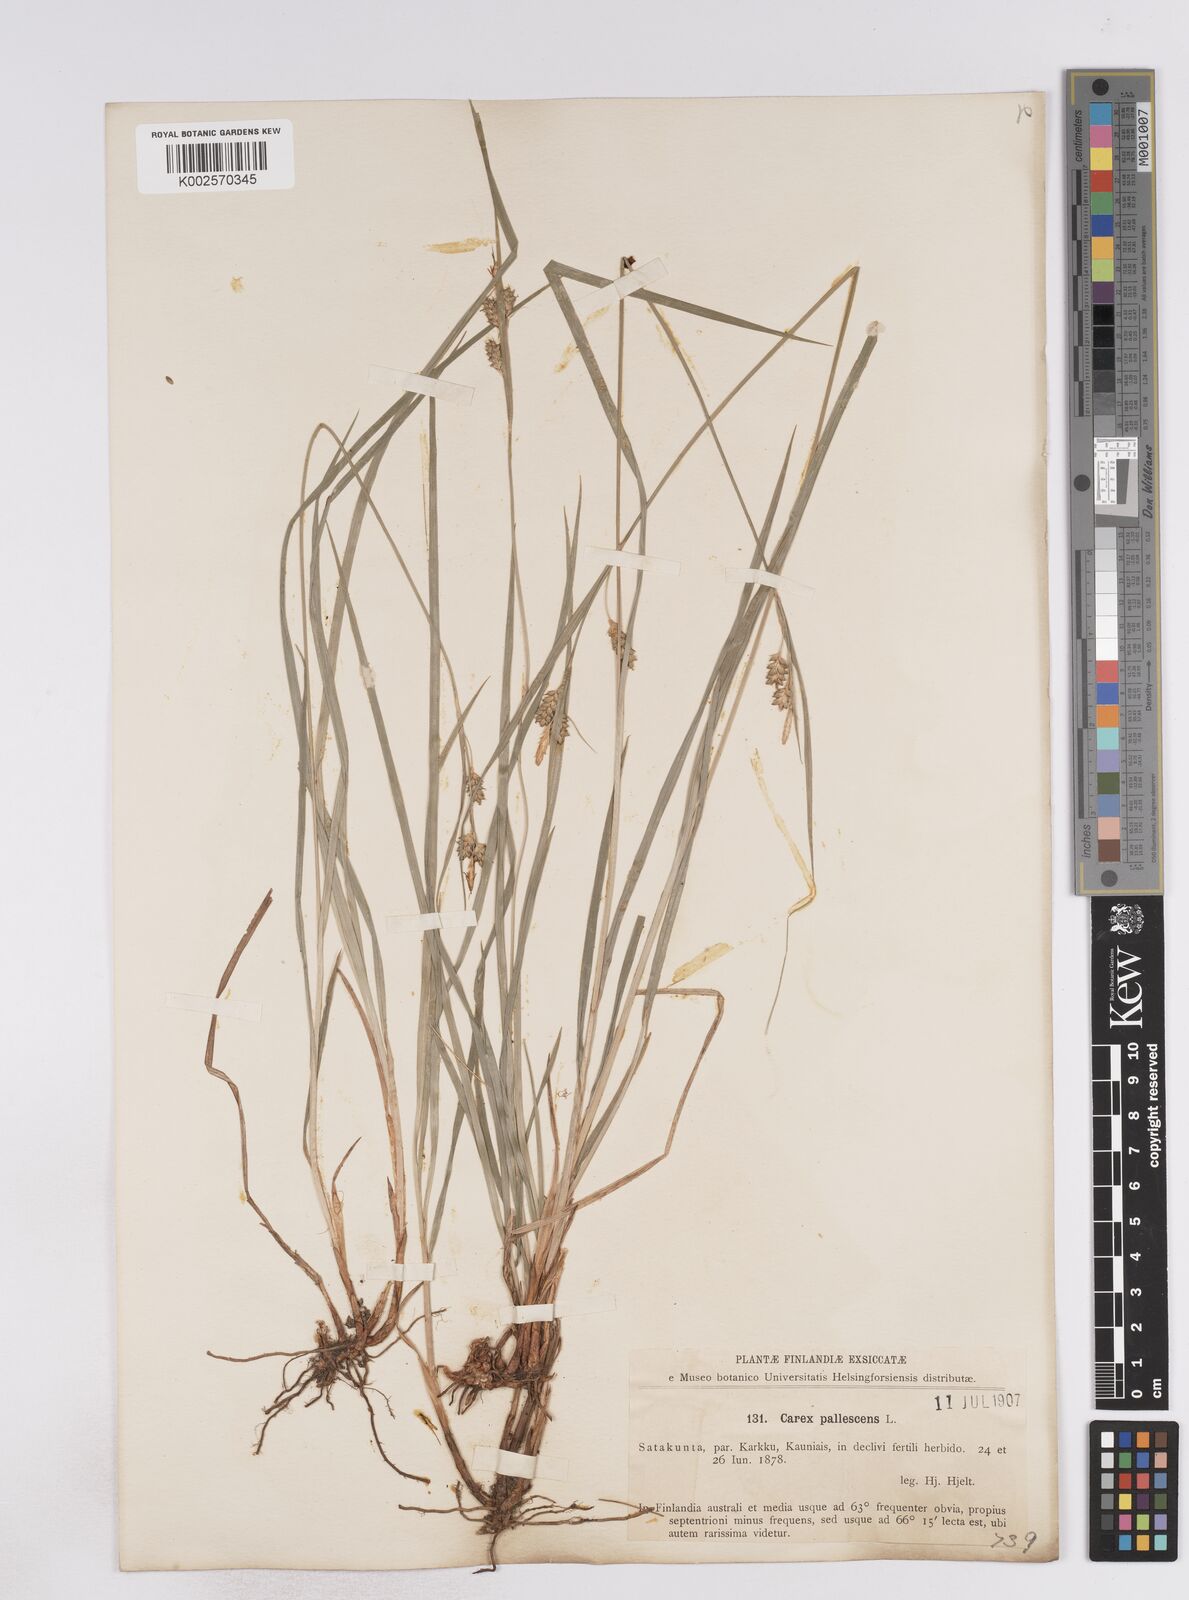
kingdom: Plantae
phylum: Tracheophyta
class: Liliopsida
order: Poales
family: Cyperaceae
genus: Carex
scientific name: Carex pallescens
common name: Pale sedge
